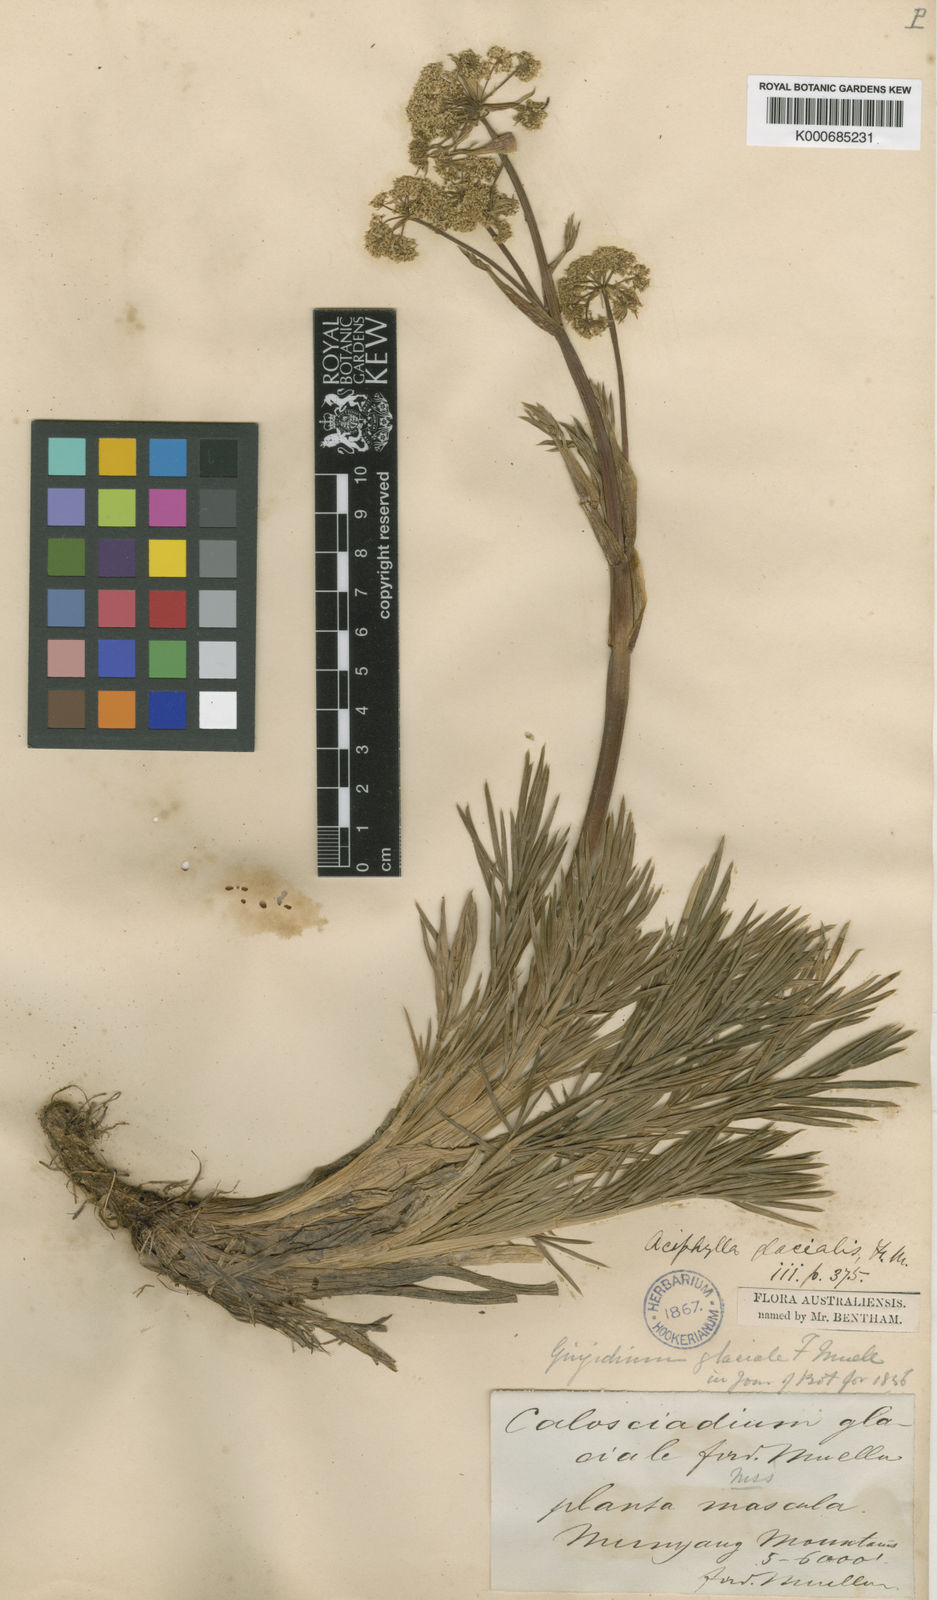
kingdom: Plantae
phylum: Tracheophyta
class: Magnoliopsida
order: Apiales
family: Apiaceae
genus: Aciphylla
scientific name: Aciphylla glacialis
